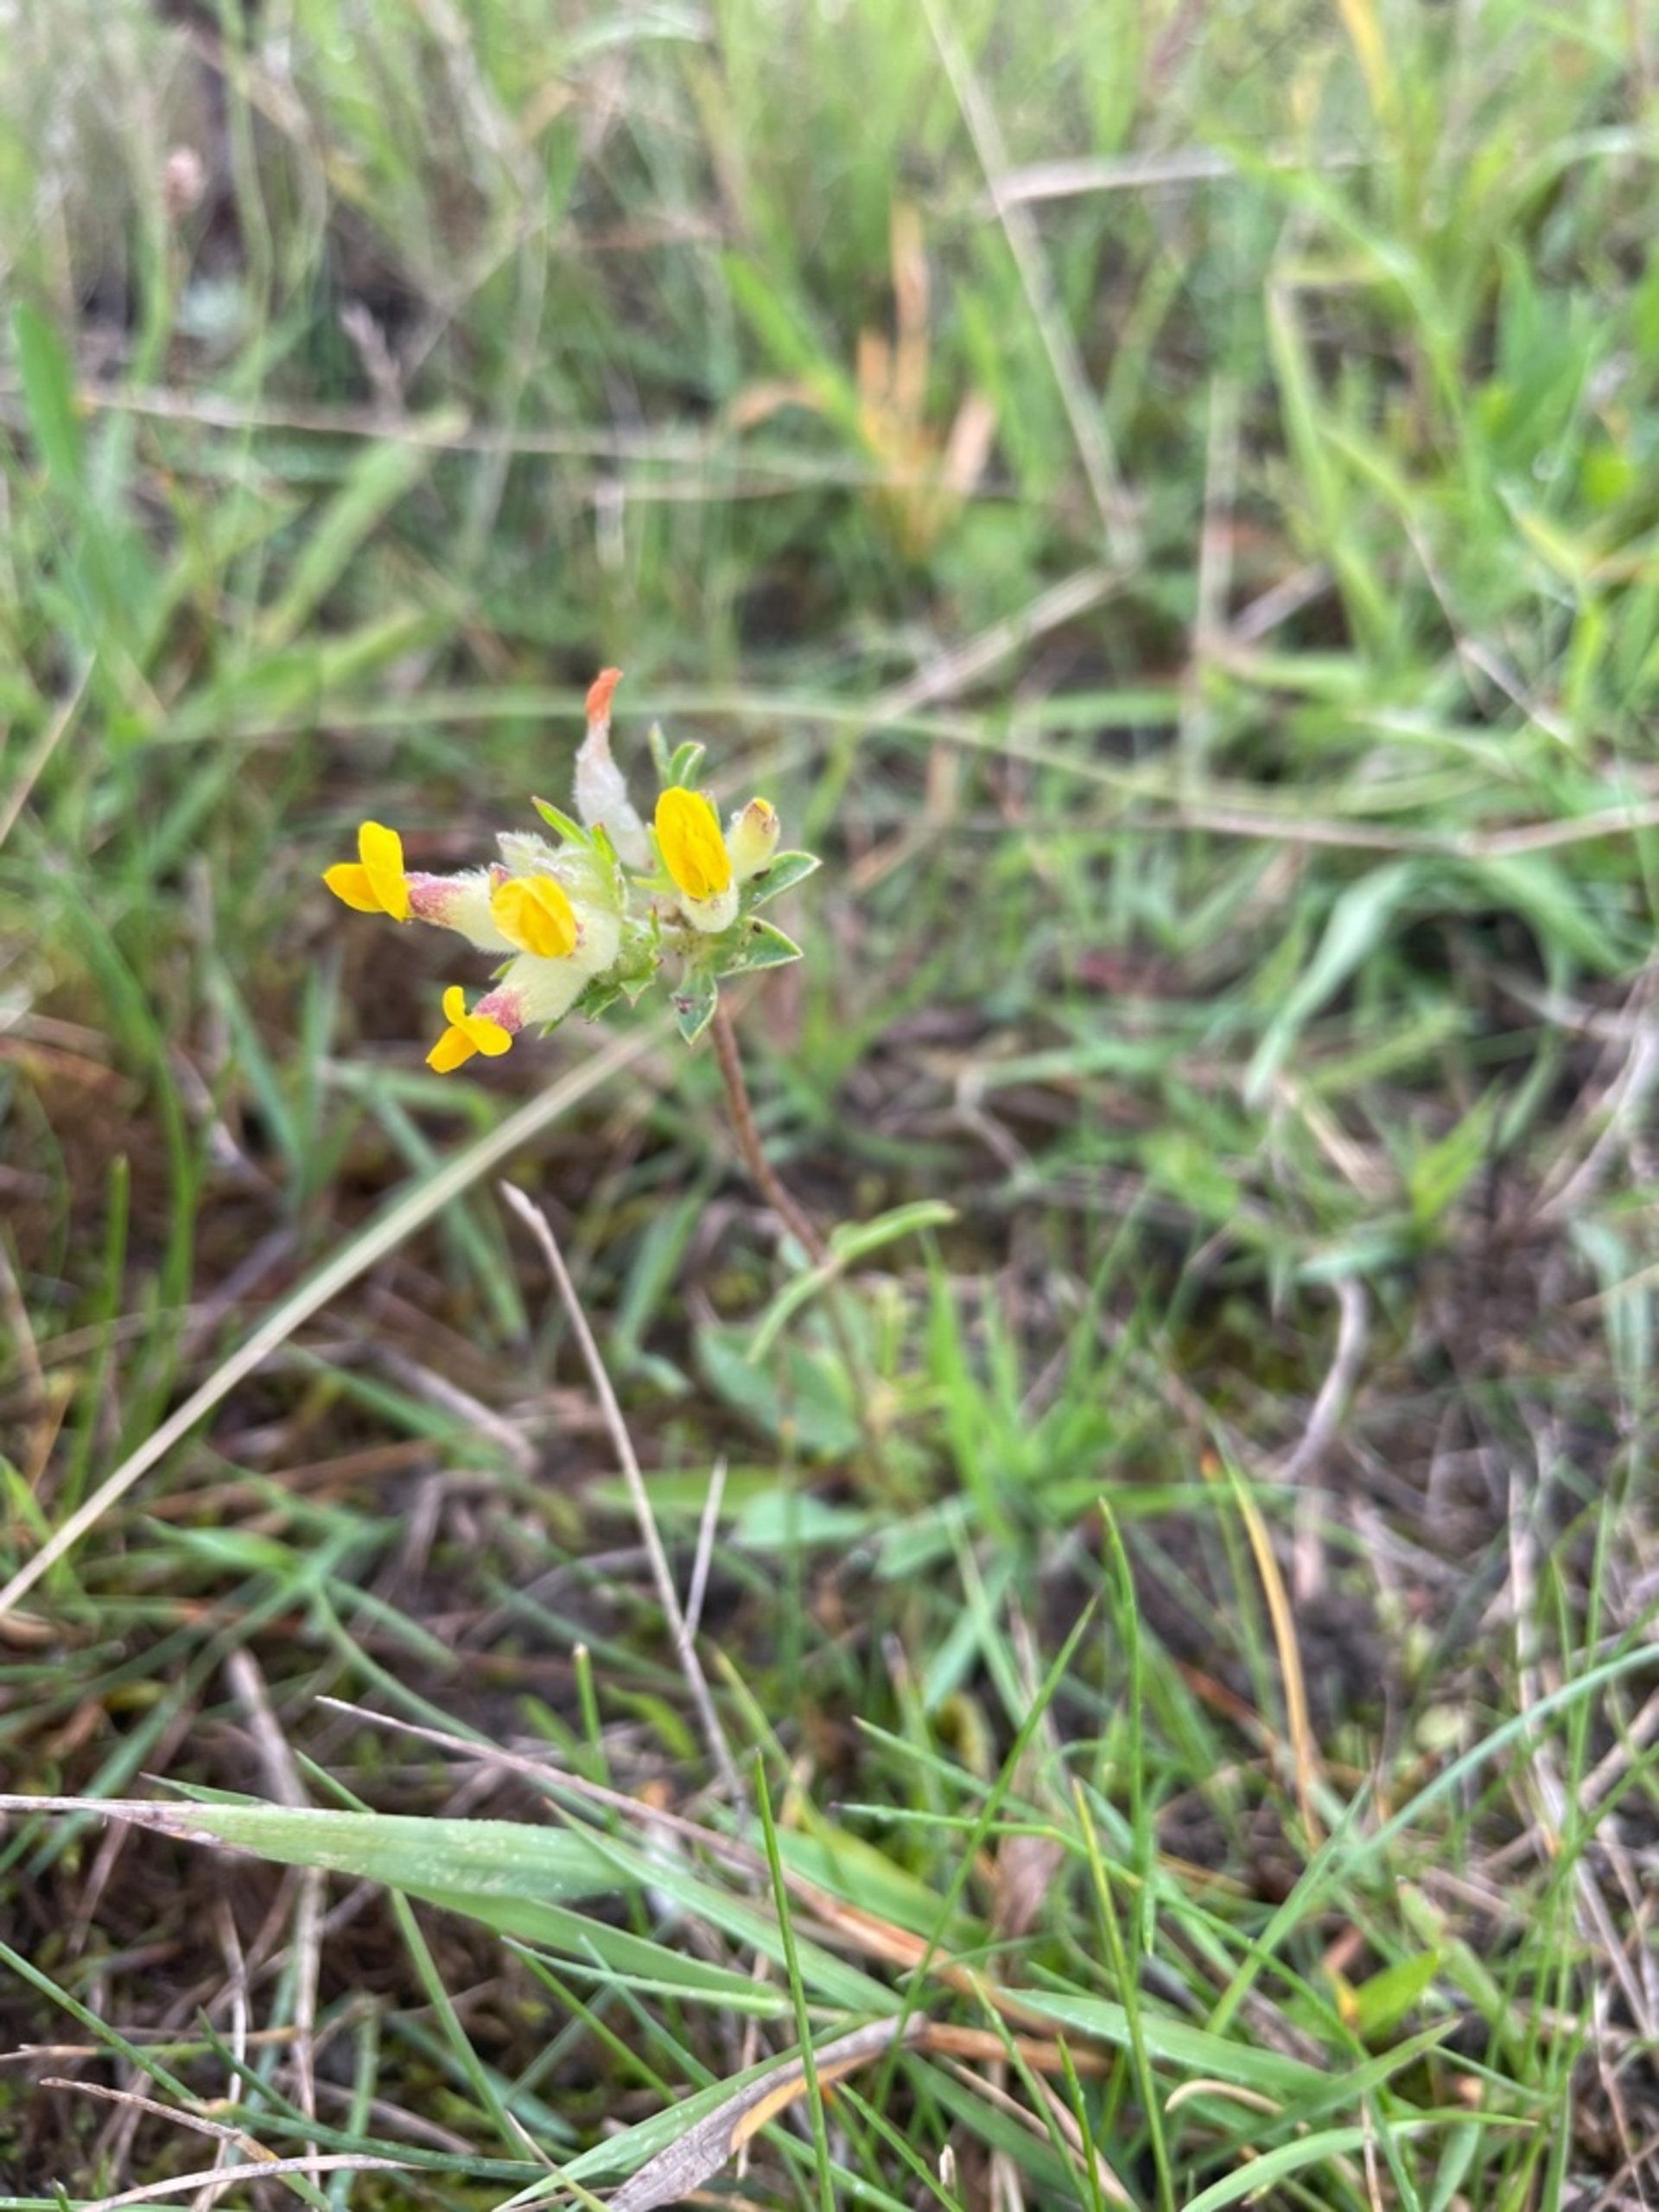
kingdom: Plantae
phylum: Tracheophyta
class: Magnoliopsida
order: Fabales
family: Fabaceae
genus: Anthyllis
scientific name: Anthyllis vulneraria
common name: Rundbælg
